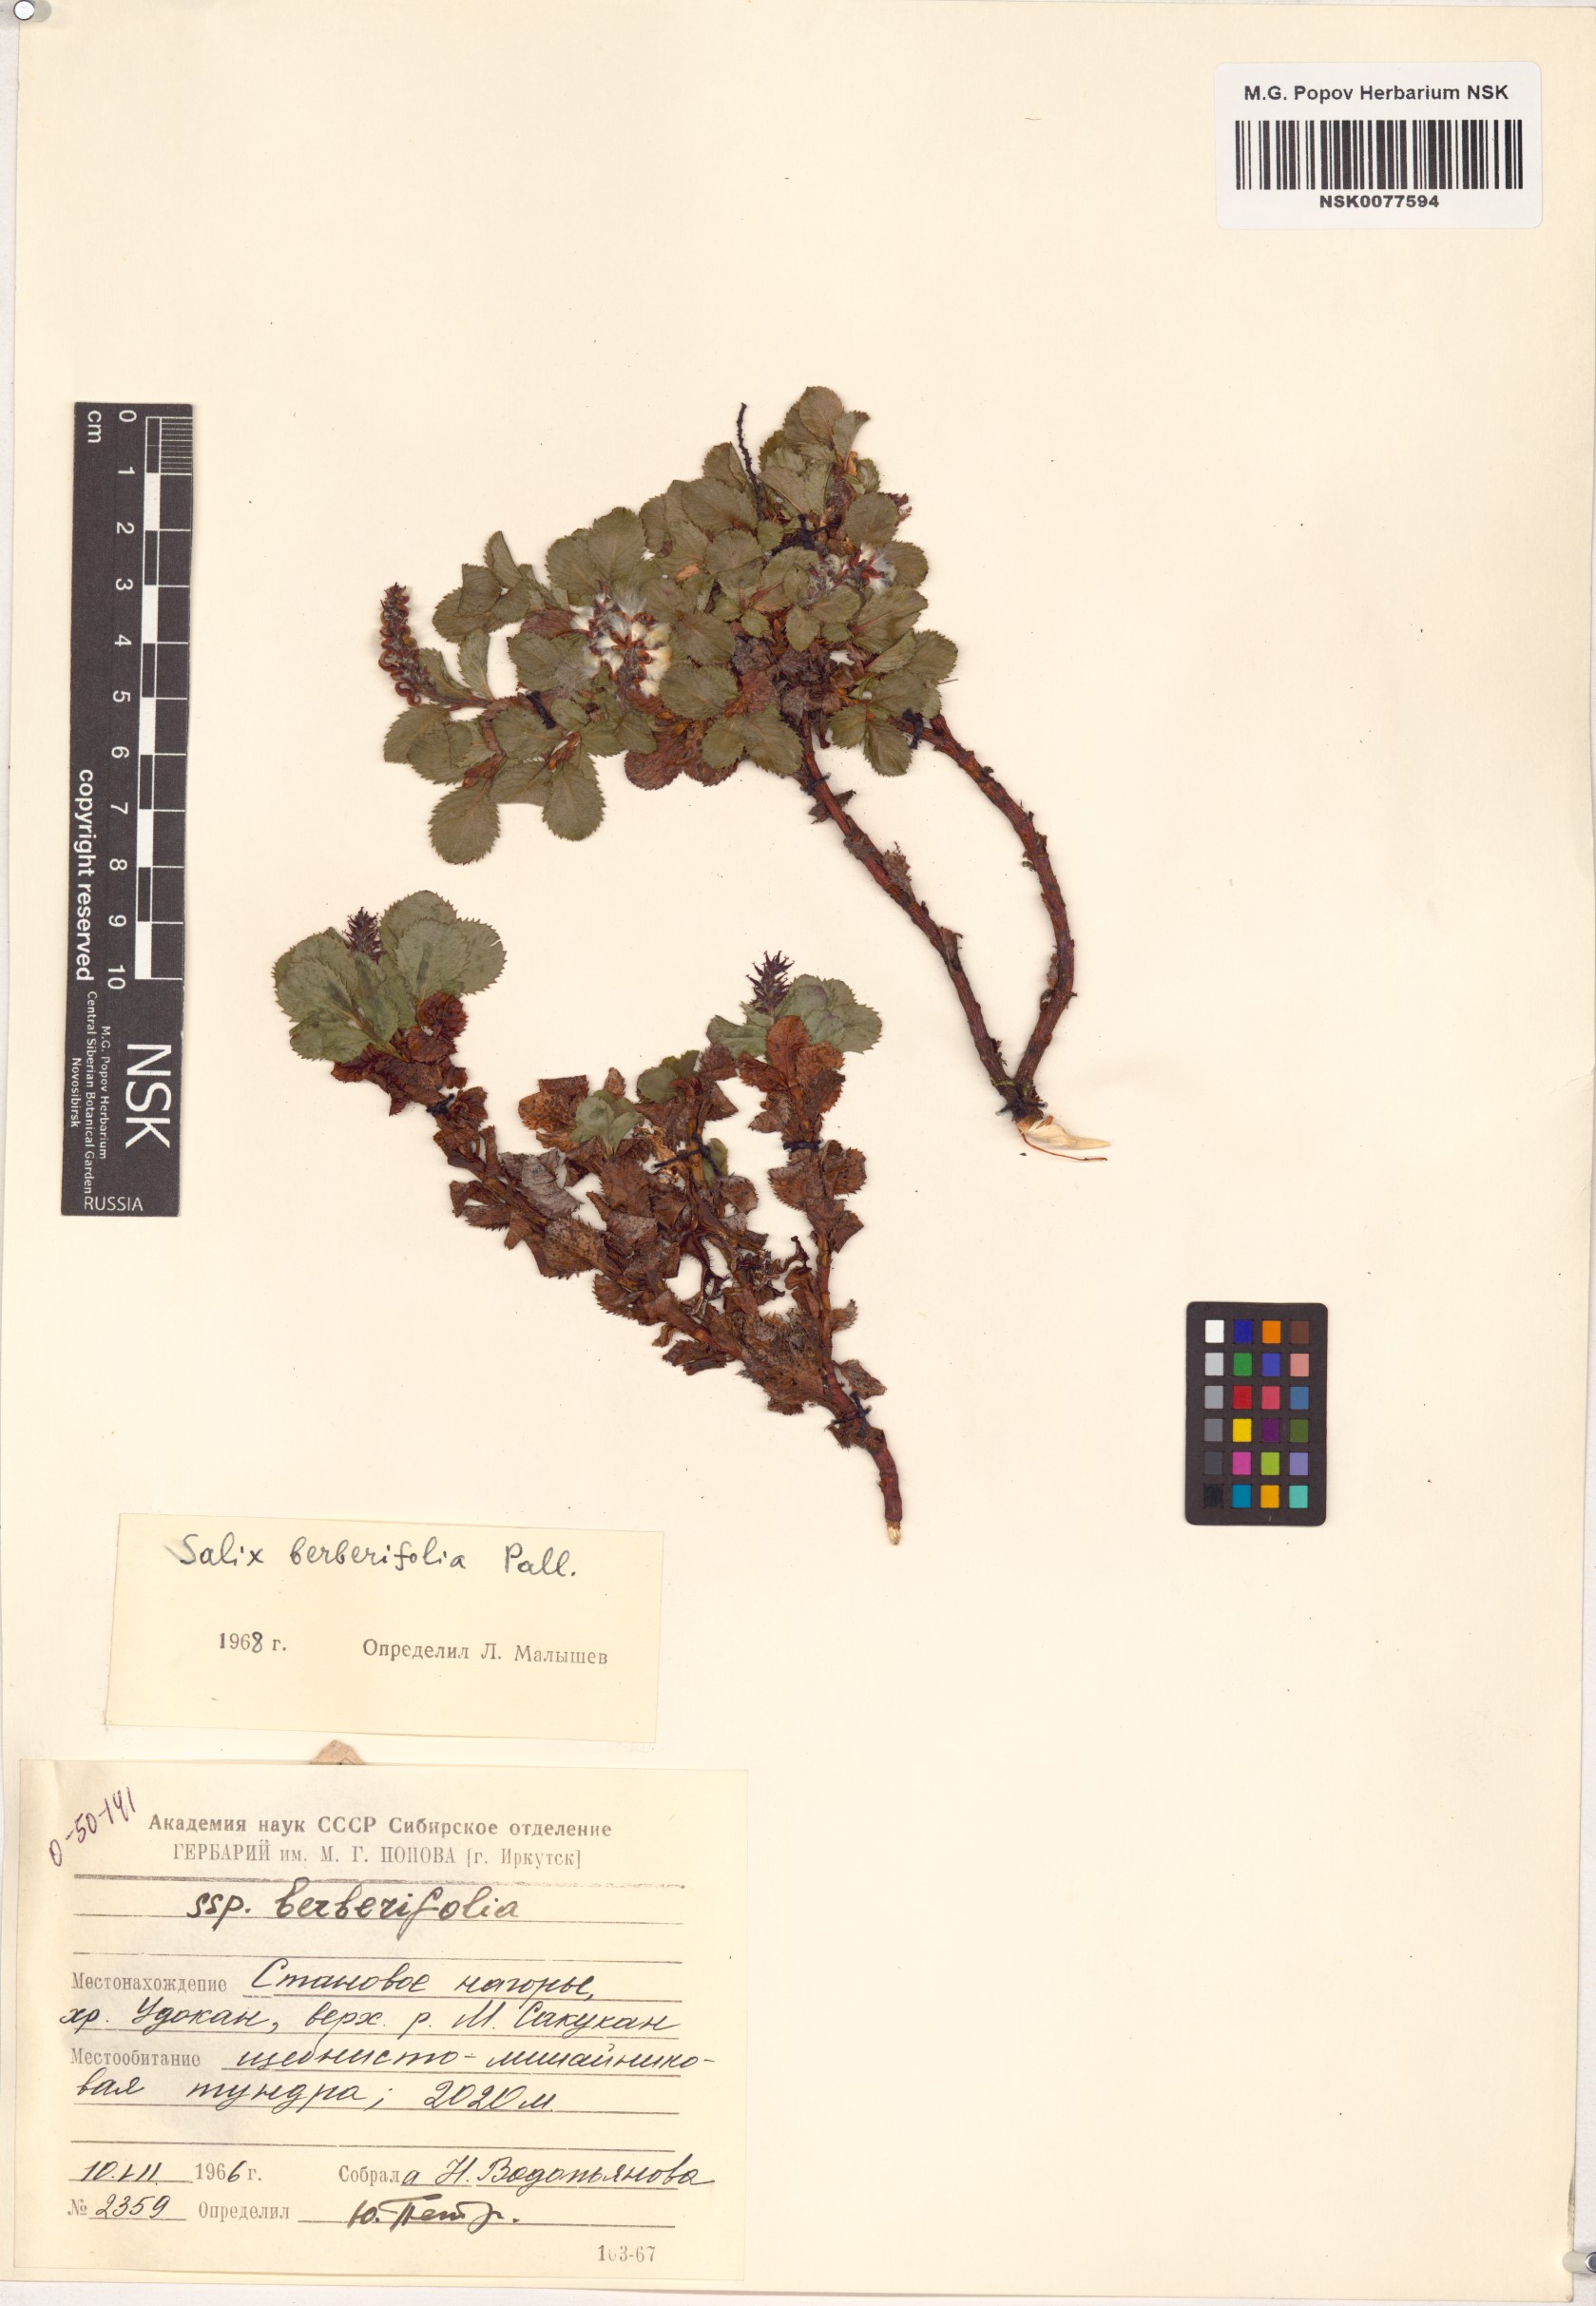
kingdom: Plantae
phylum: Tracheophyta
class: Magnoliopsida
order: Malpighiales
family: Salicaceae
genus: Salix
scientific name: Salix berberifolia
